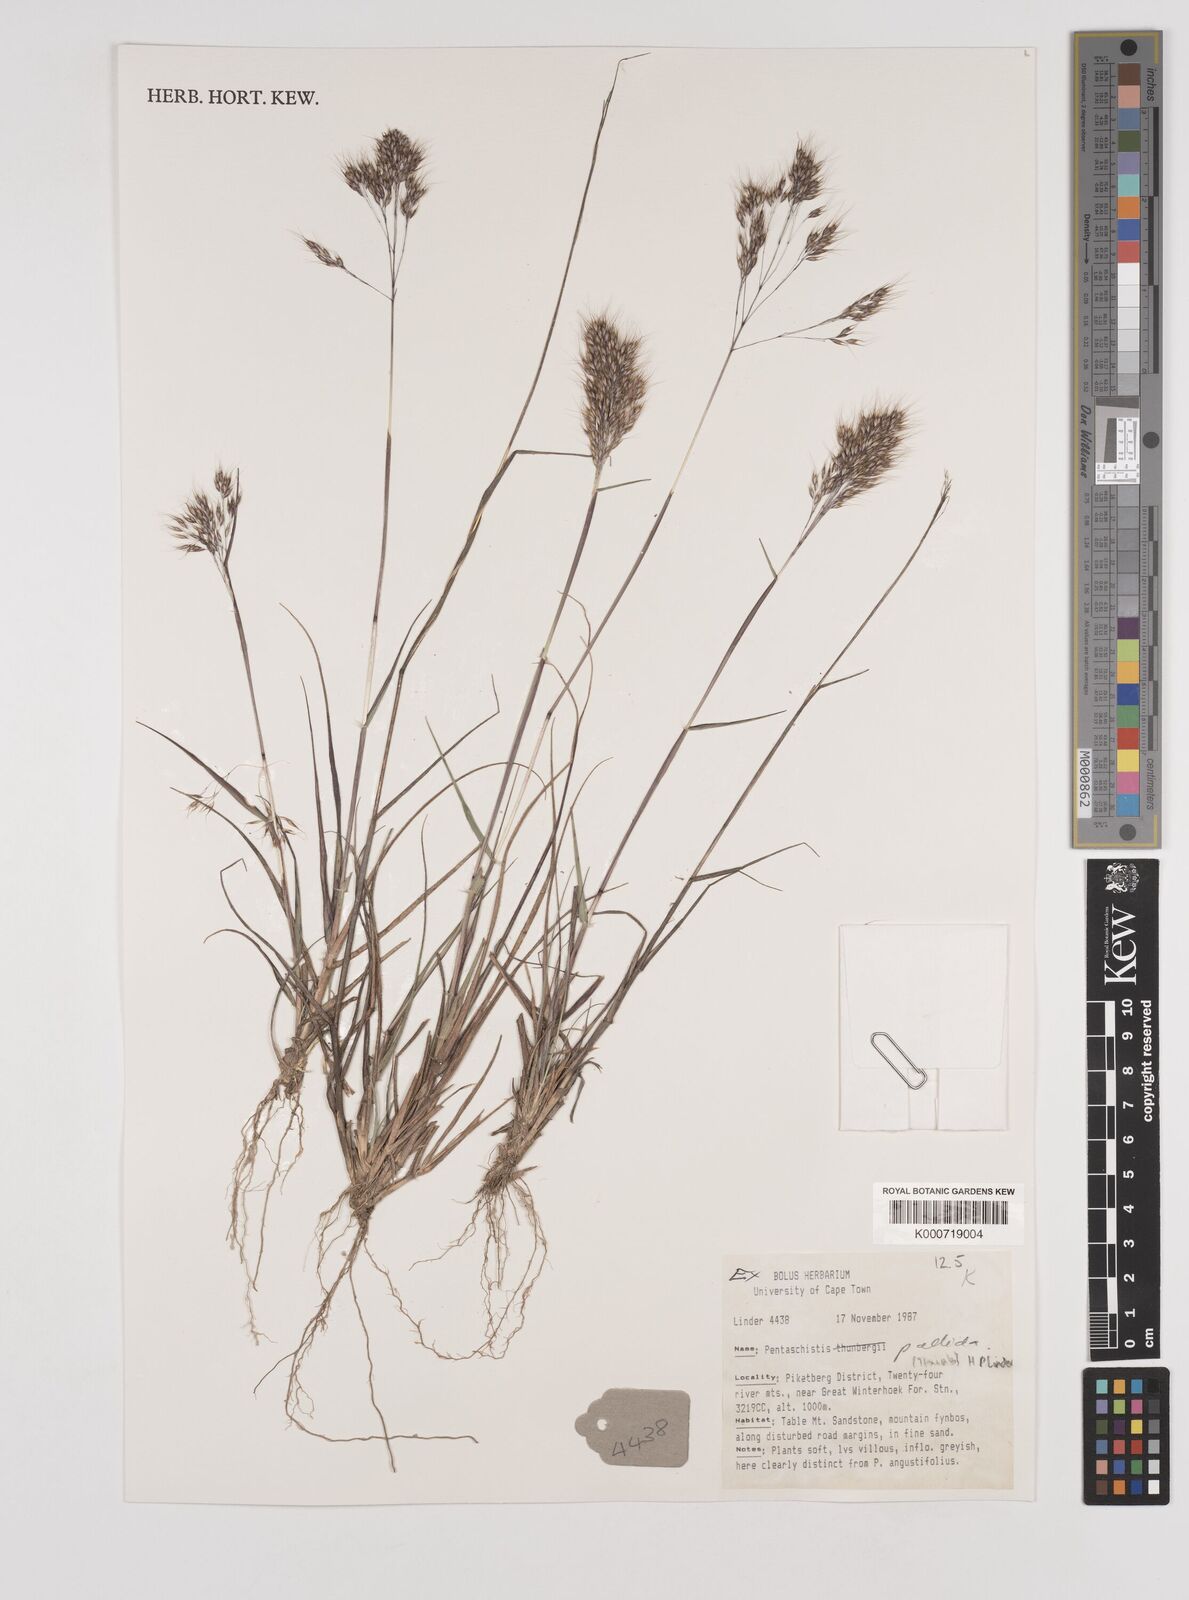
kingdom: Plantae
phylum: Tracheophyta
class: Liliopsida
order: Poales
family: Poaceae
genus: Pentameris
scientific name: Pentameris pallida
